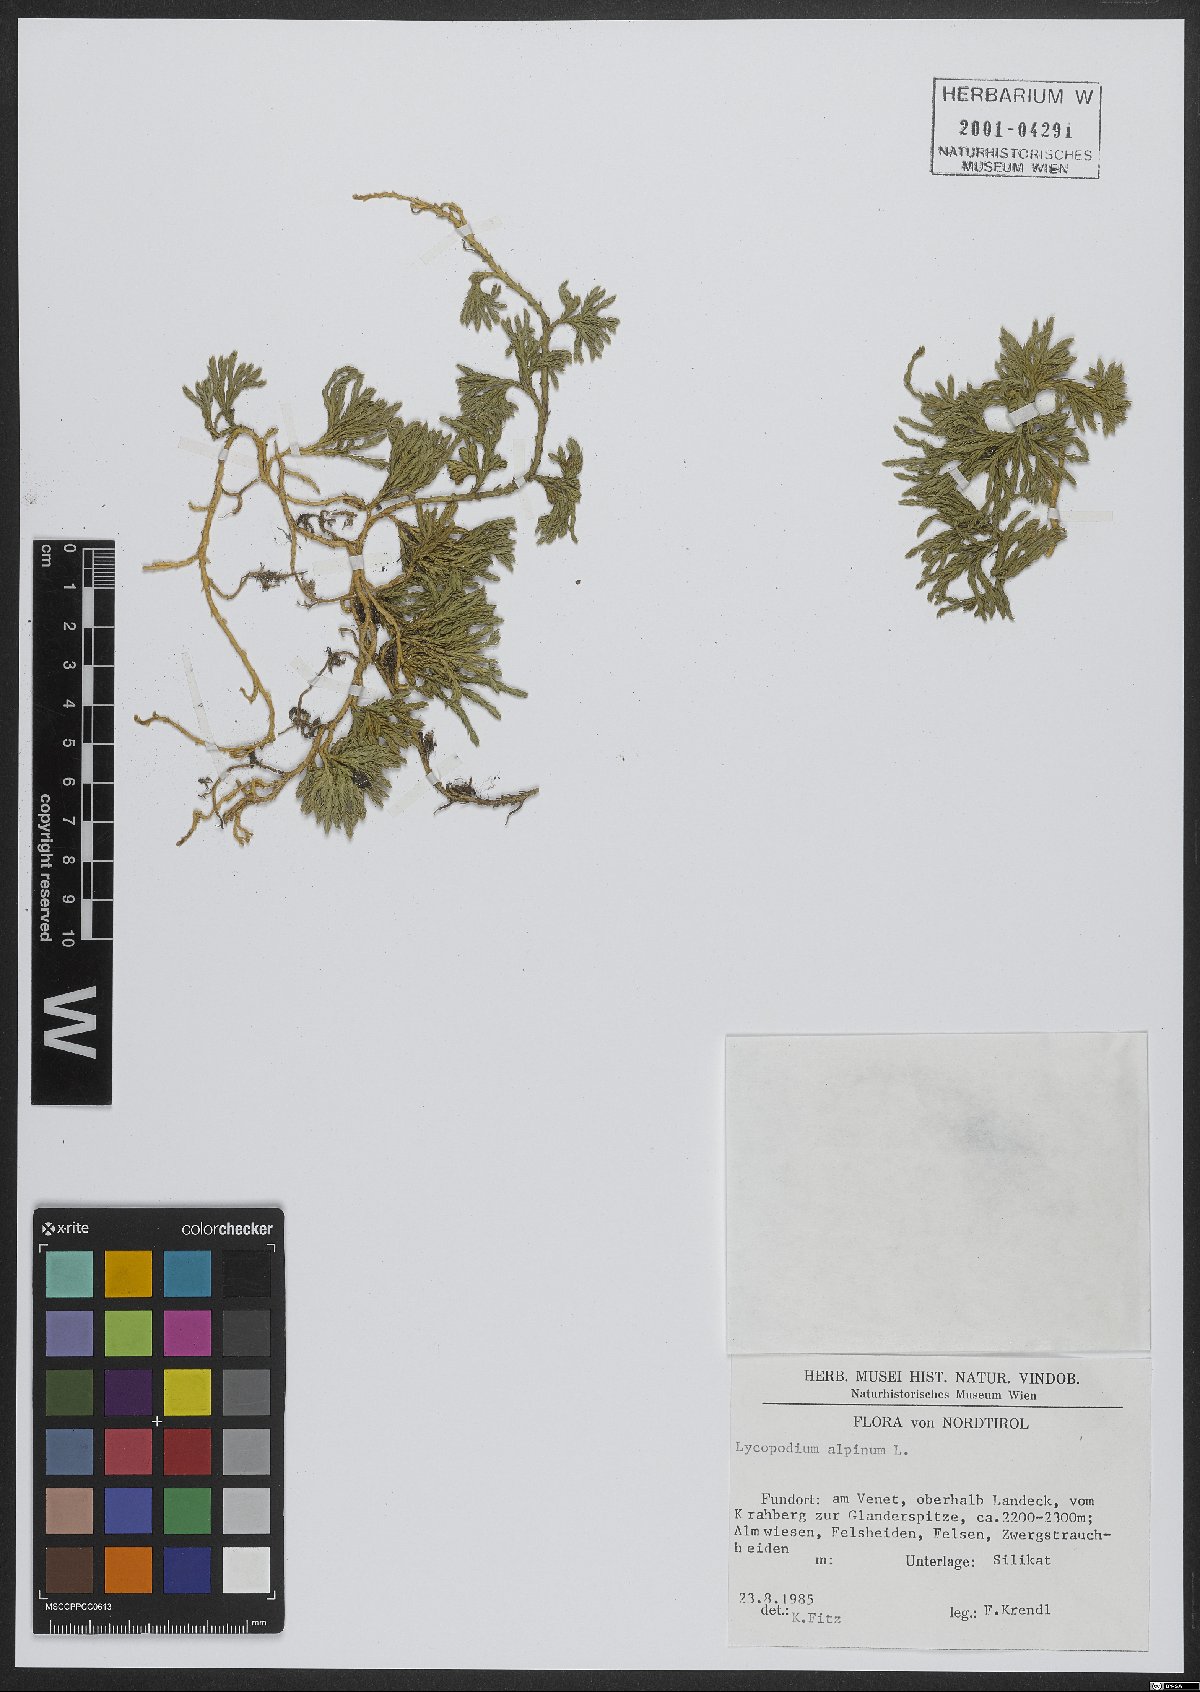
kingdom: Plantae
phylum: Tracheophyta
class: Lycopodiopsida
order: Lycopodiales
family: Lycopodiaceae
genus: Diphasiastrum
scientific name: Diphasiastrum alpinum
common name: Alpine clubmoss
